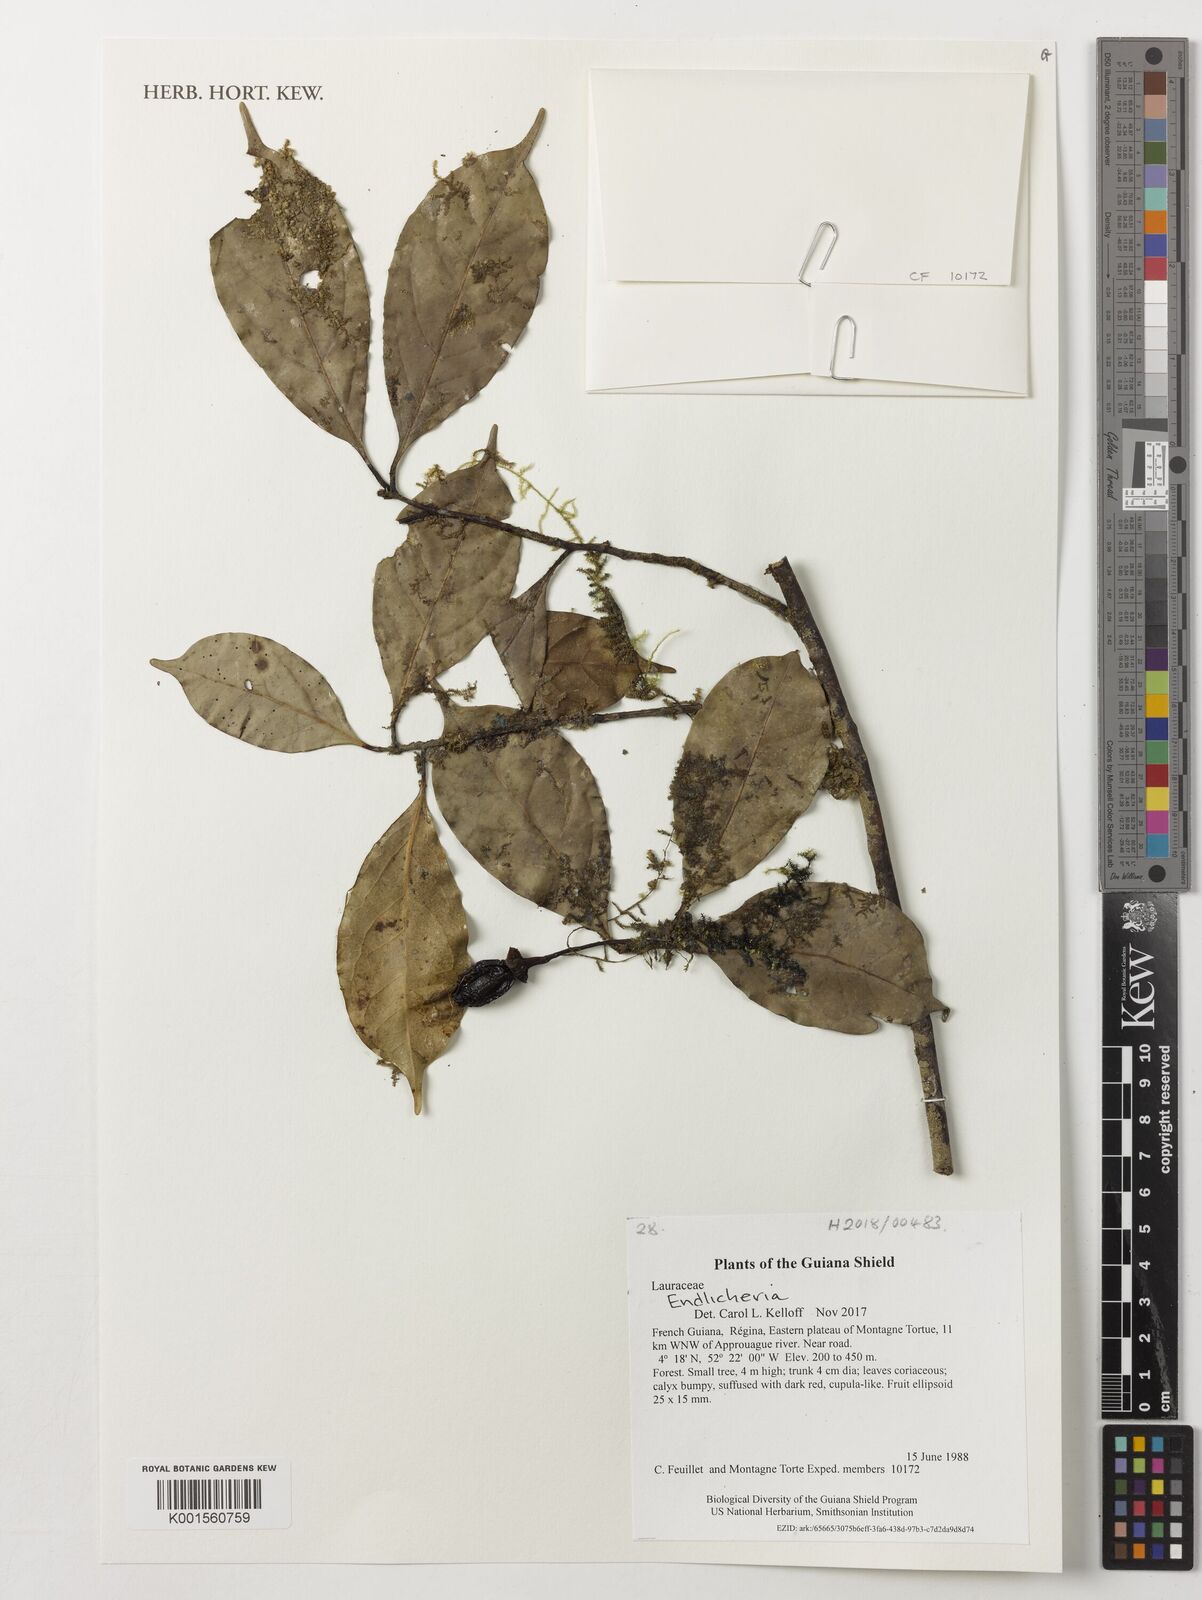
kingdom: Plantae
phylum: Tracheophyta
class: Magnoliopsida
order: Laurales
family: Lauraceae
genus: Endlicheria
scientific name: Endlicheria
